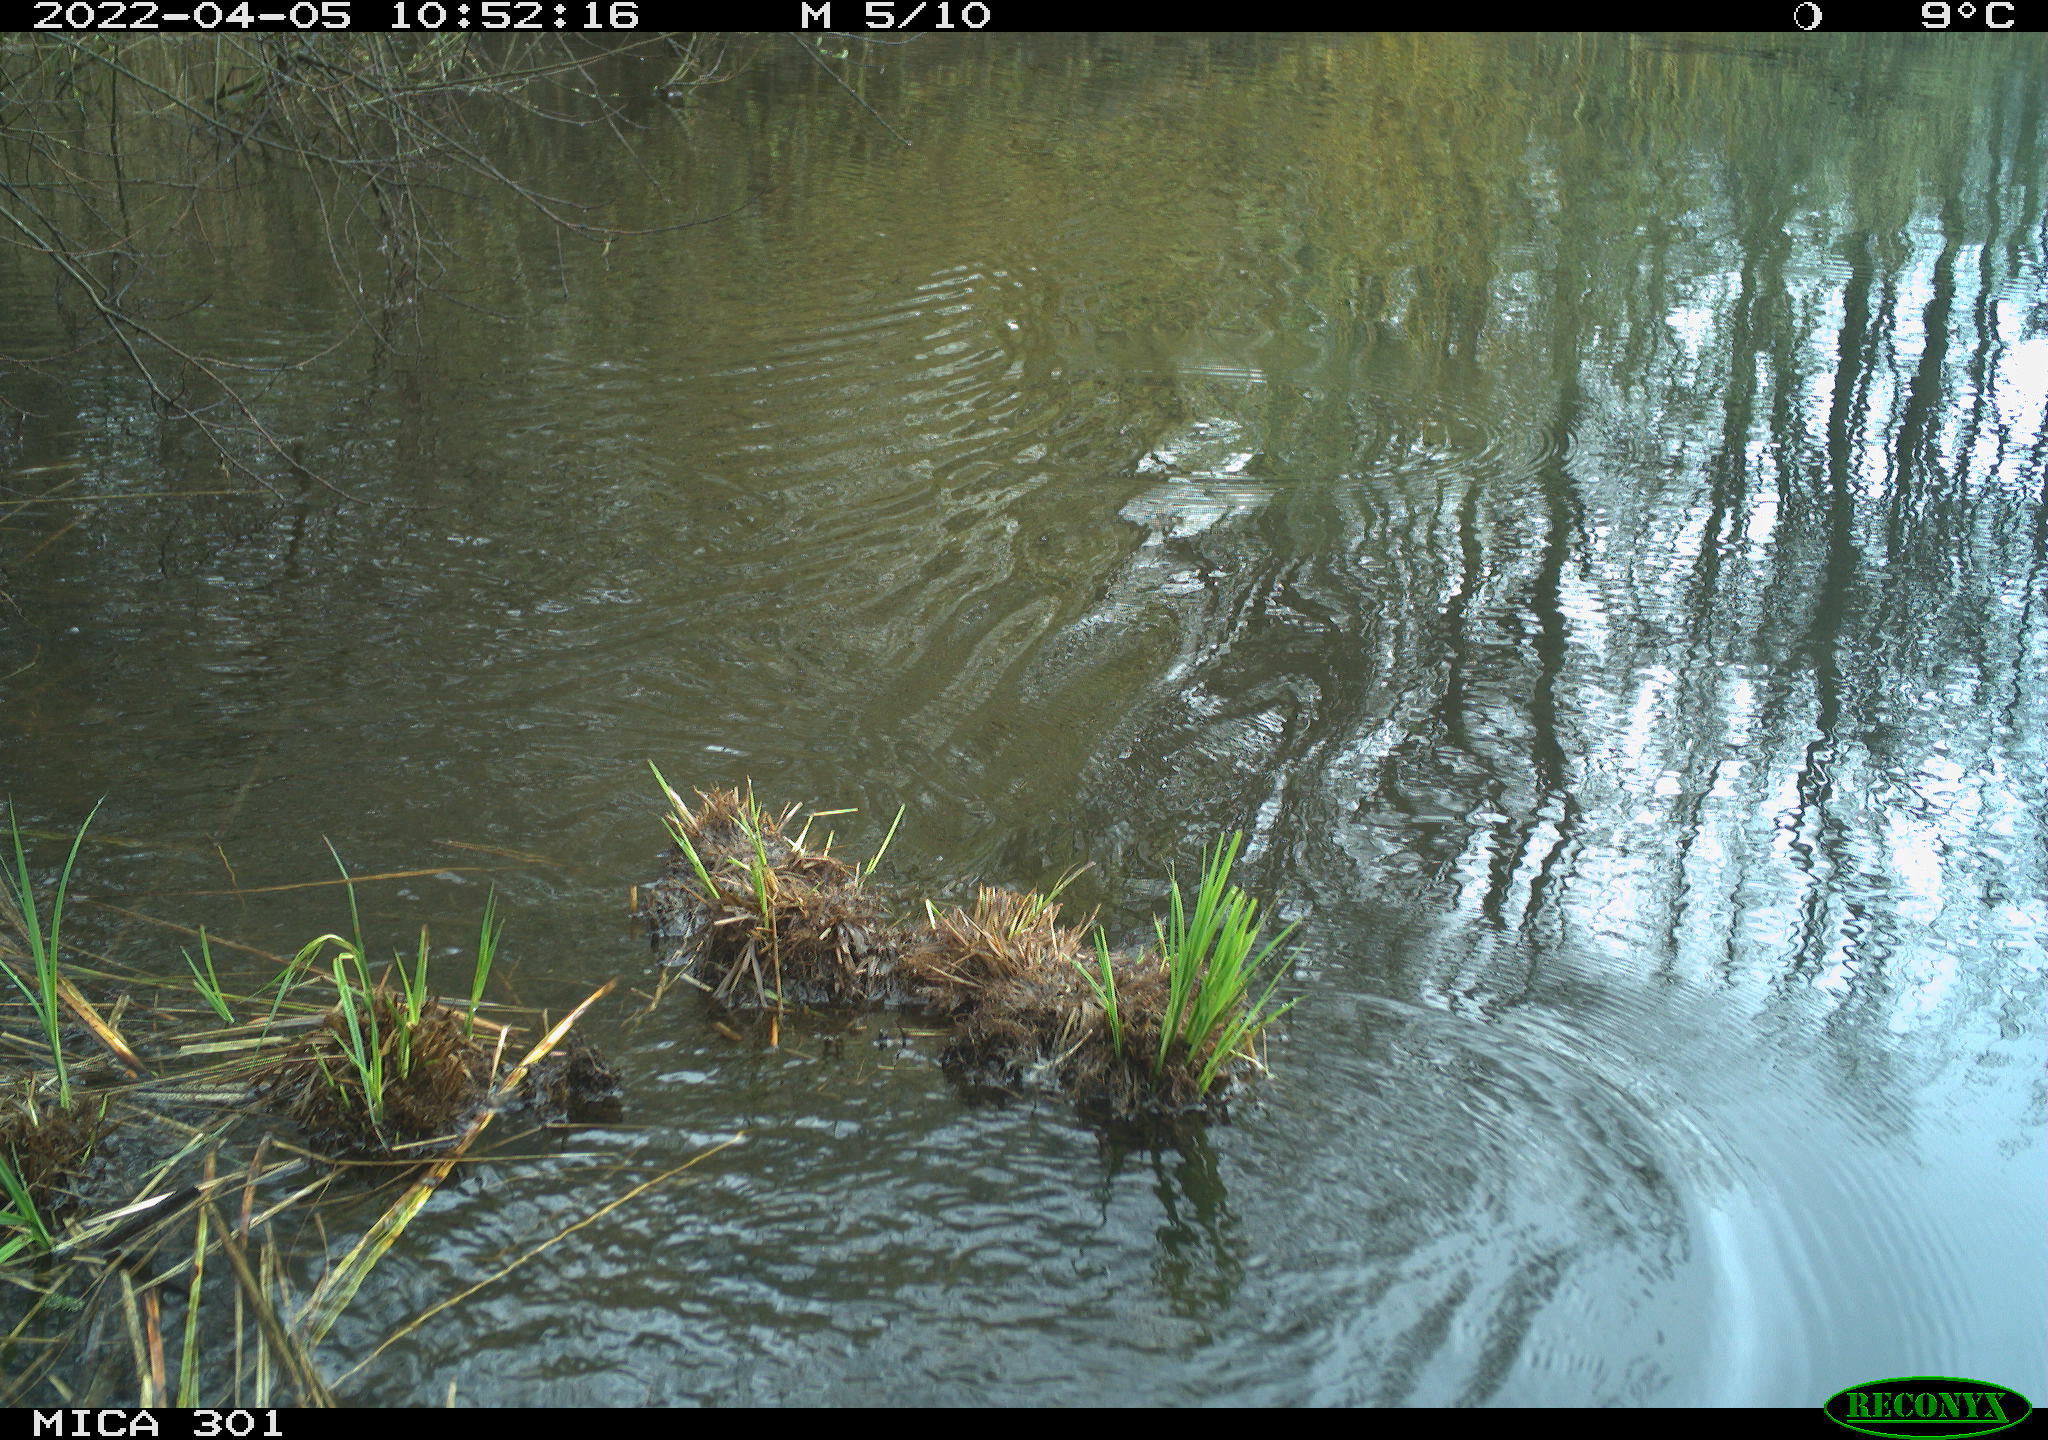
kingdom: Animalia
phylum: Chordata
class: Aves
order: Gruiformes
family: Rallidae
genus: Gallinula
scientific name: Gallinula chloropus
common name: Common moorhen
